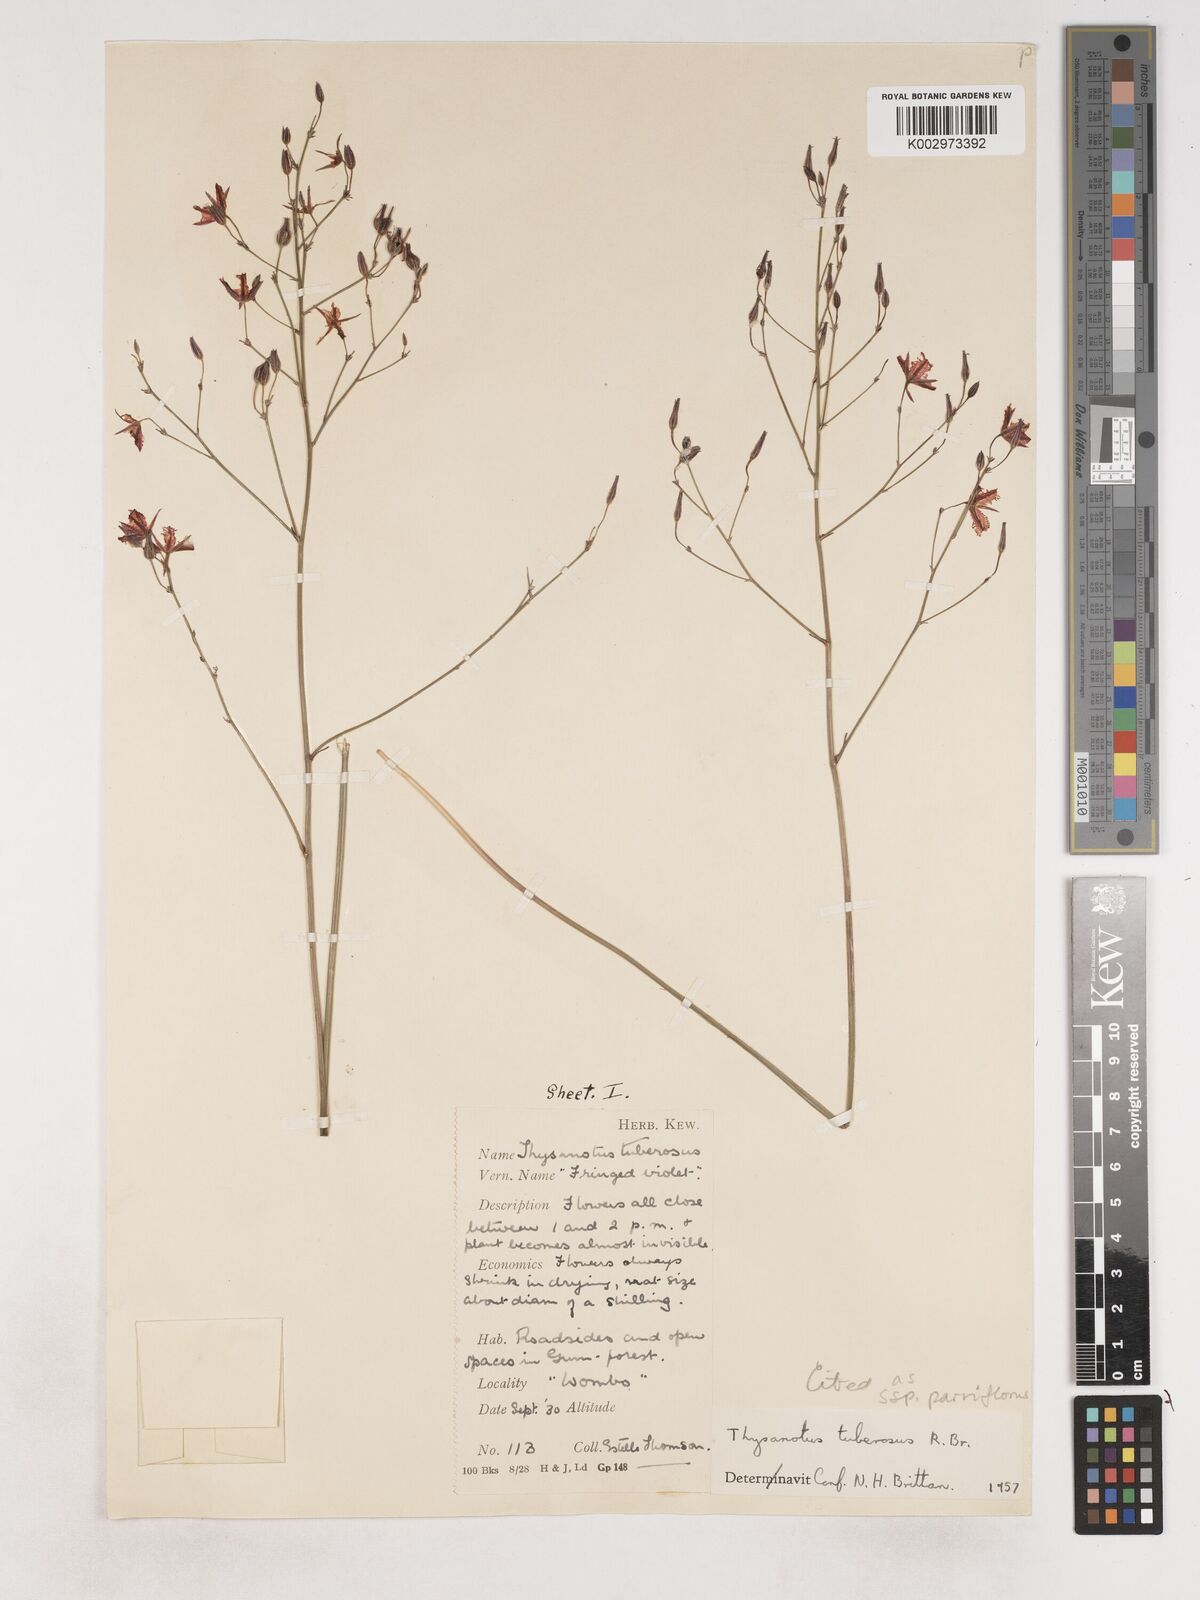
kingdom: Plantae
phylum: Tracheophyta
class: Liliopsida
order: Asparagales
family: Asparagaceae
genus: Thysanotus
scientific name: Thysanotus tuberosus
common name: Common fringed-lily
